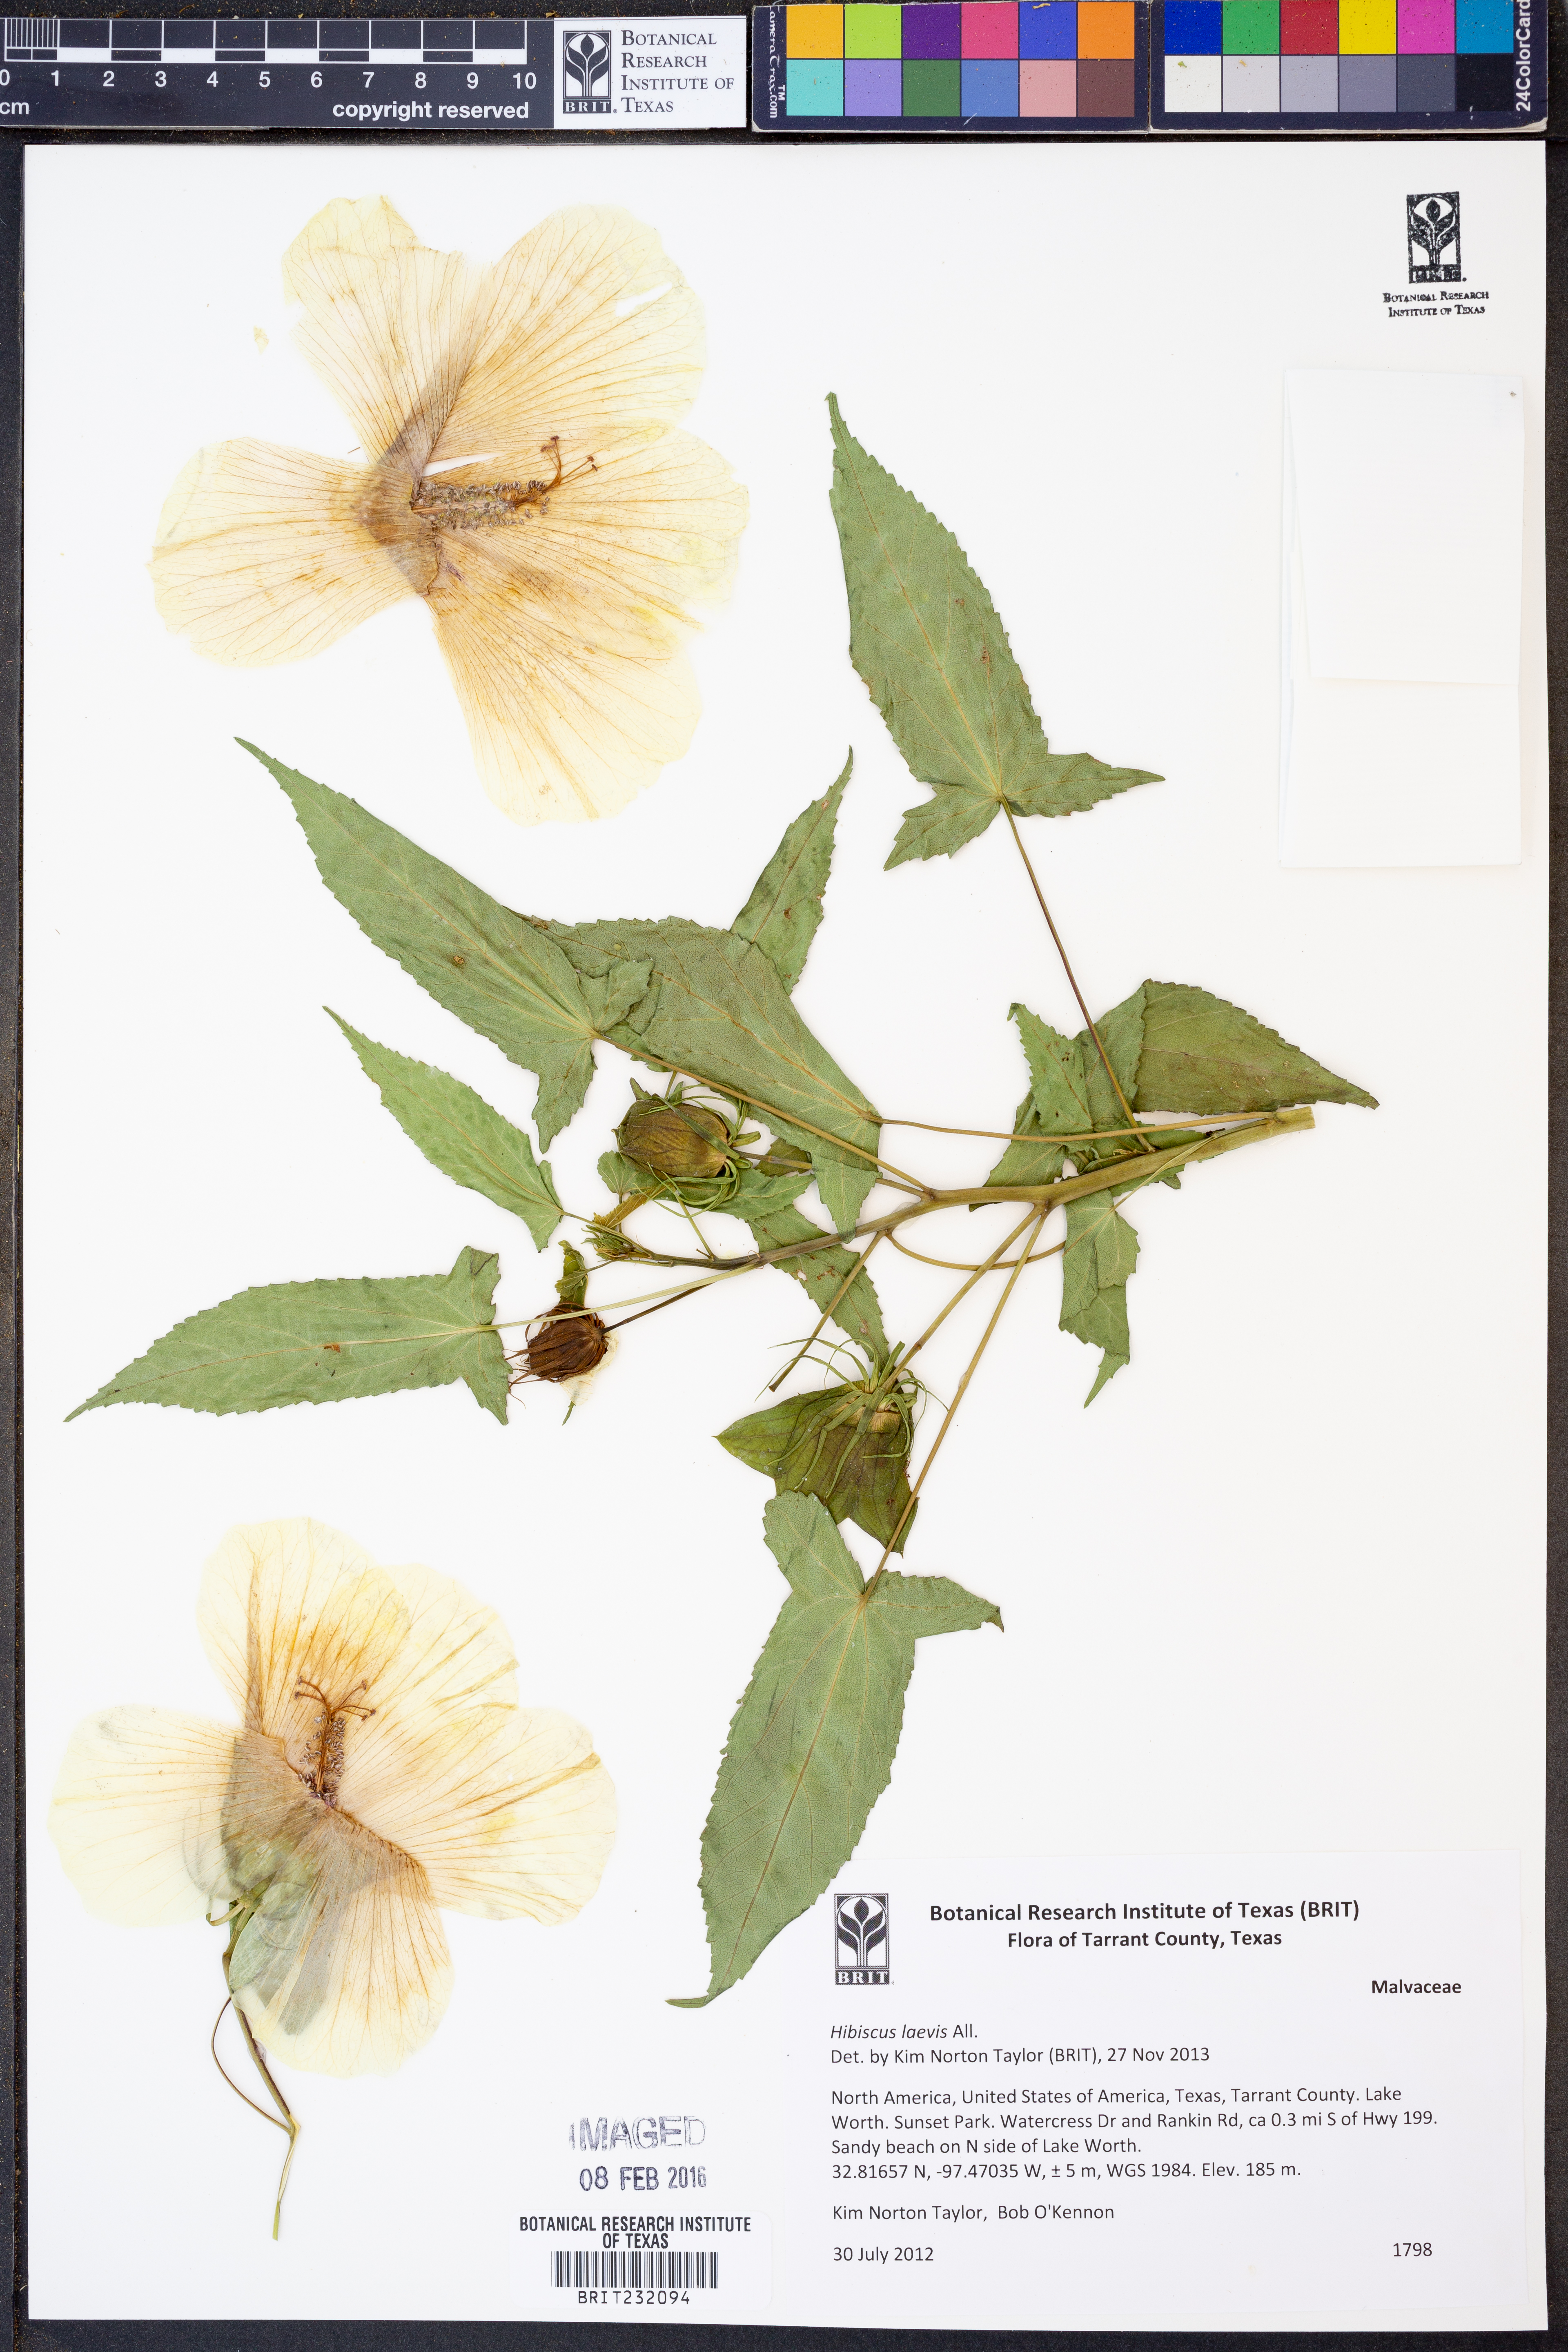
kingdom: Plantae
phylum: Tracheophyta
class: Magnoliopsida
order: Malvales
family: Malvaceae
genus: Hibiscus
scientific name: Hibiscus laevis
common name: Scarlet rose-mallow
